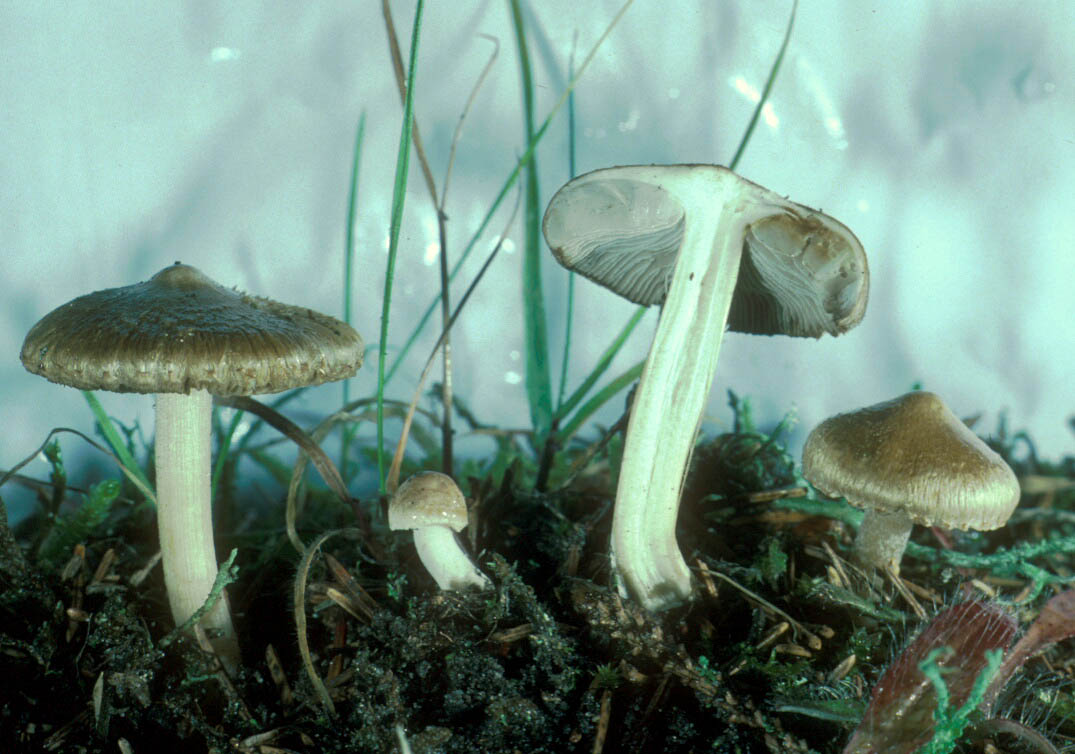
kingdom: Fungi
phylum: Basidiomycota
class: Agaricomycetes
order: Agaricales
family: Inocybaceae
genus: Inocybe
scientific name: Inocybe sindonia
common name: bleg trævlhat
